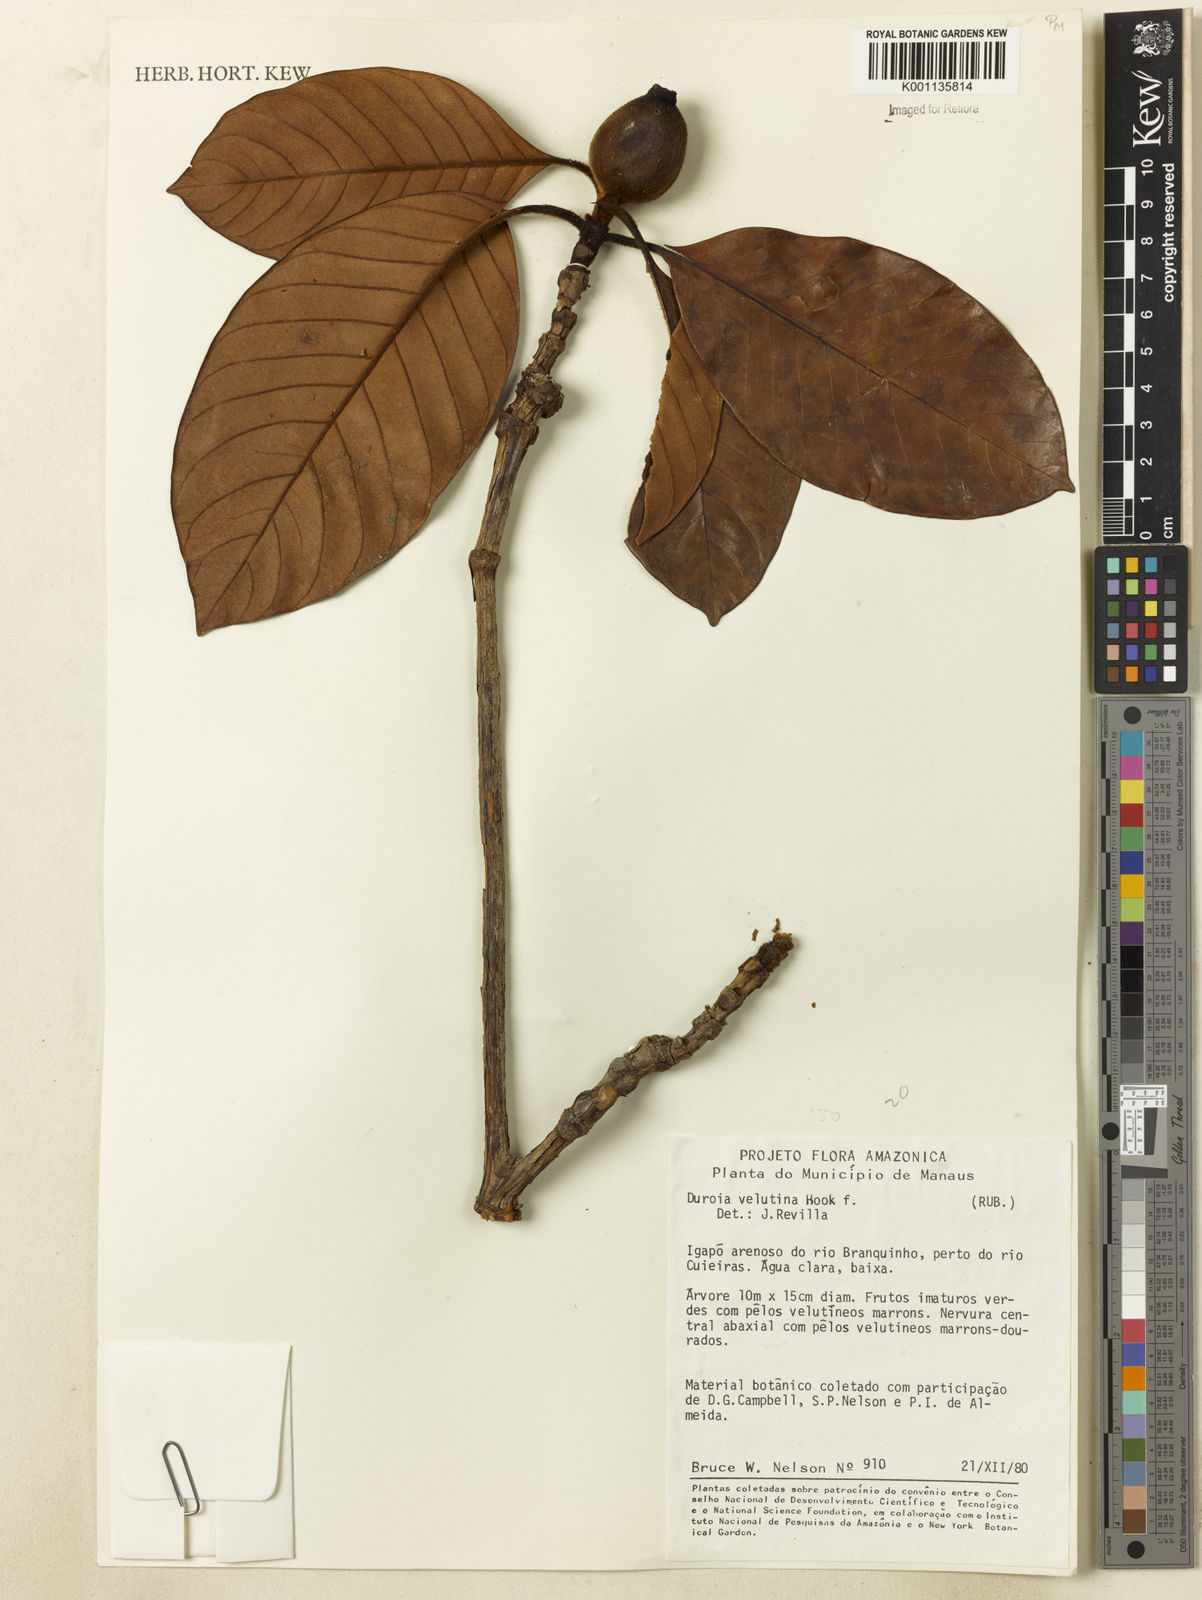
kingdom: Plantae
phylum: Tracheophyta
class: Magnoliopsida
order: Gentianales
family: Rubiaceae
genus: Duroia
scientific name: Duroia velutina
